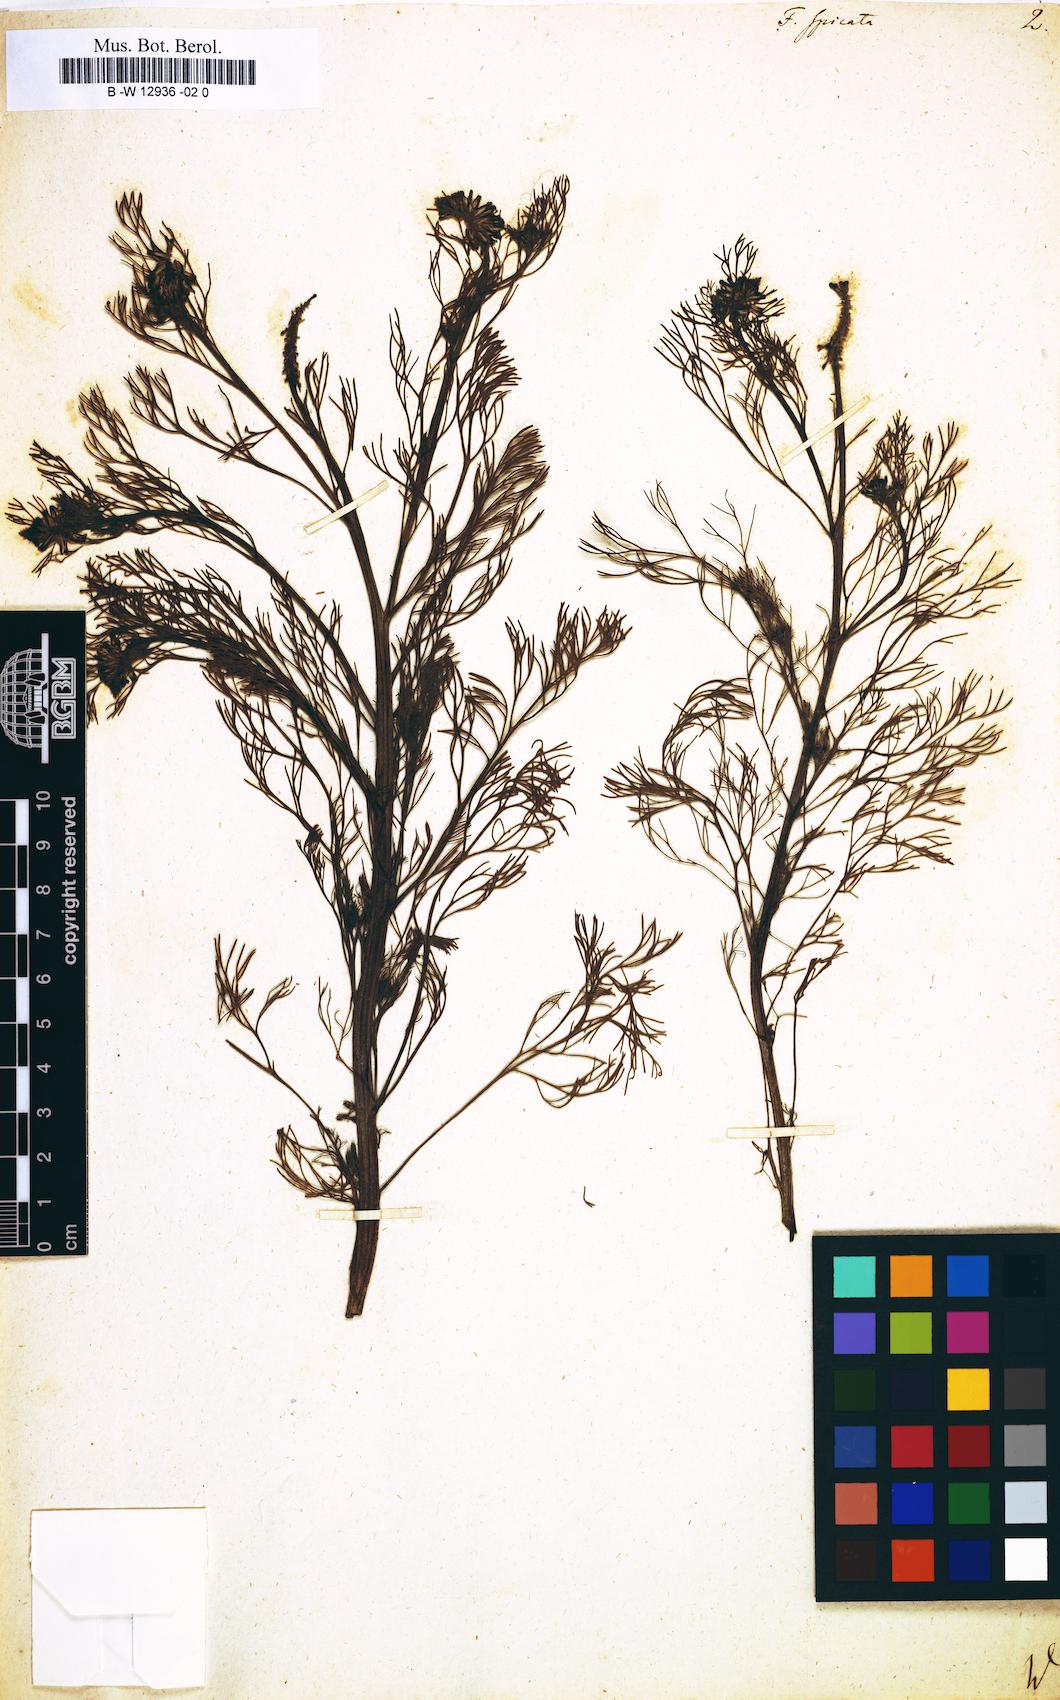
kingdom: Plantae
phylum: Tracheophyta
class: Magnoliopsida
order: Ranunculales
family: Papaveraceae
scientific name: Papaveraceae
